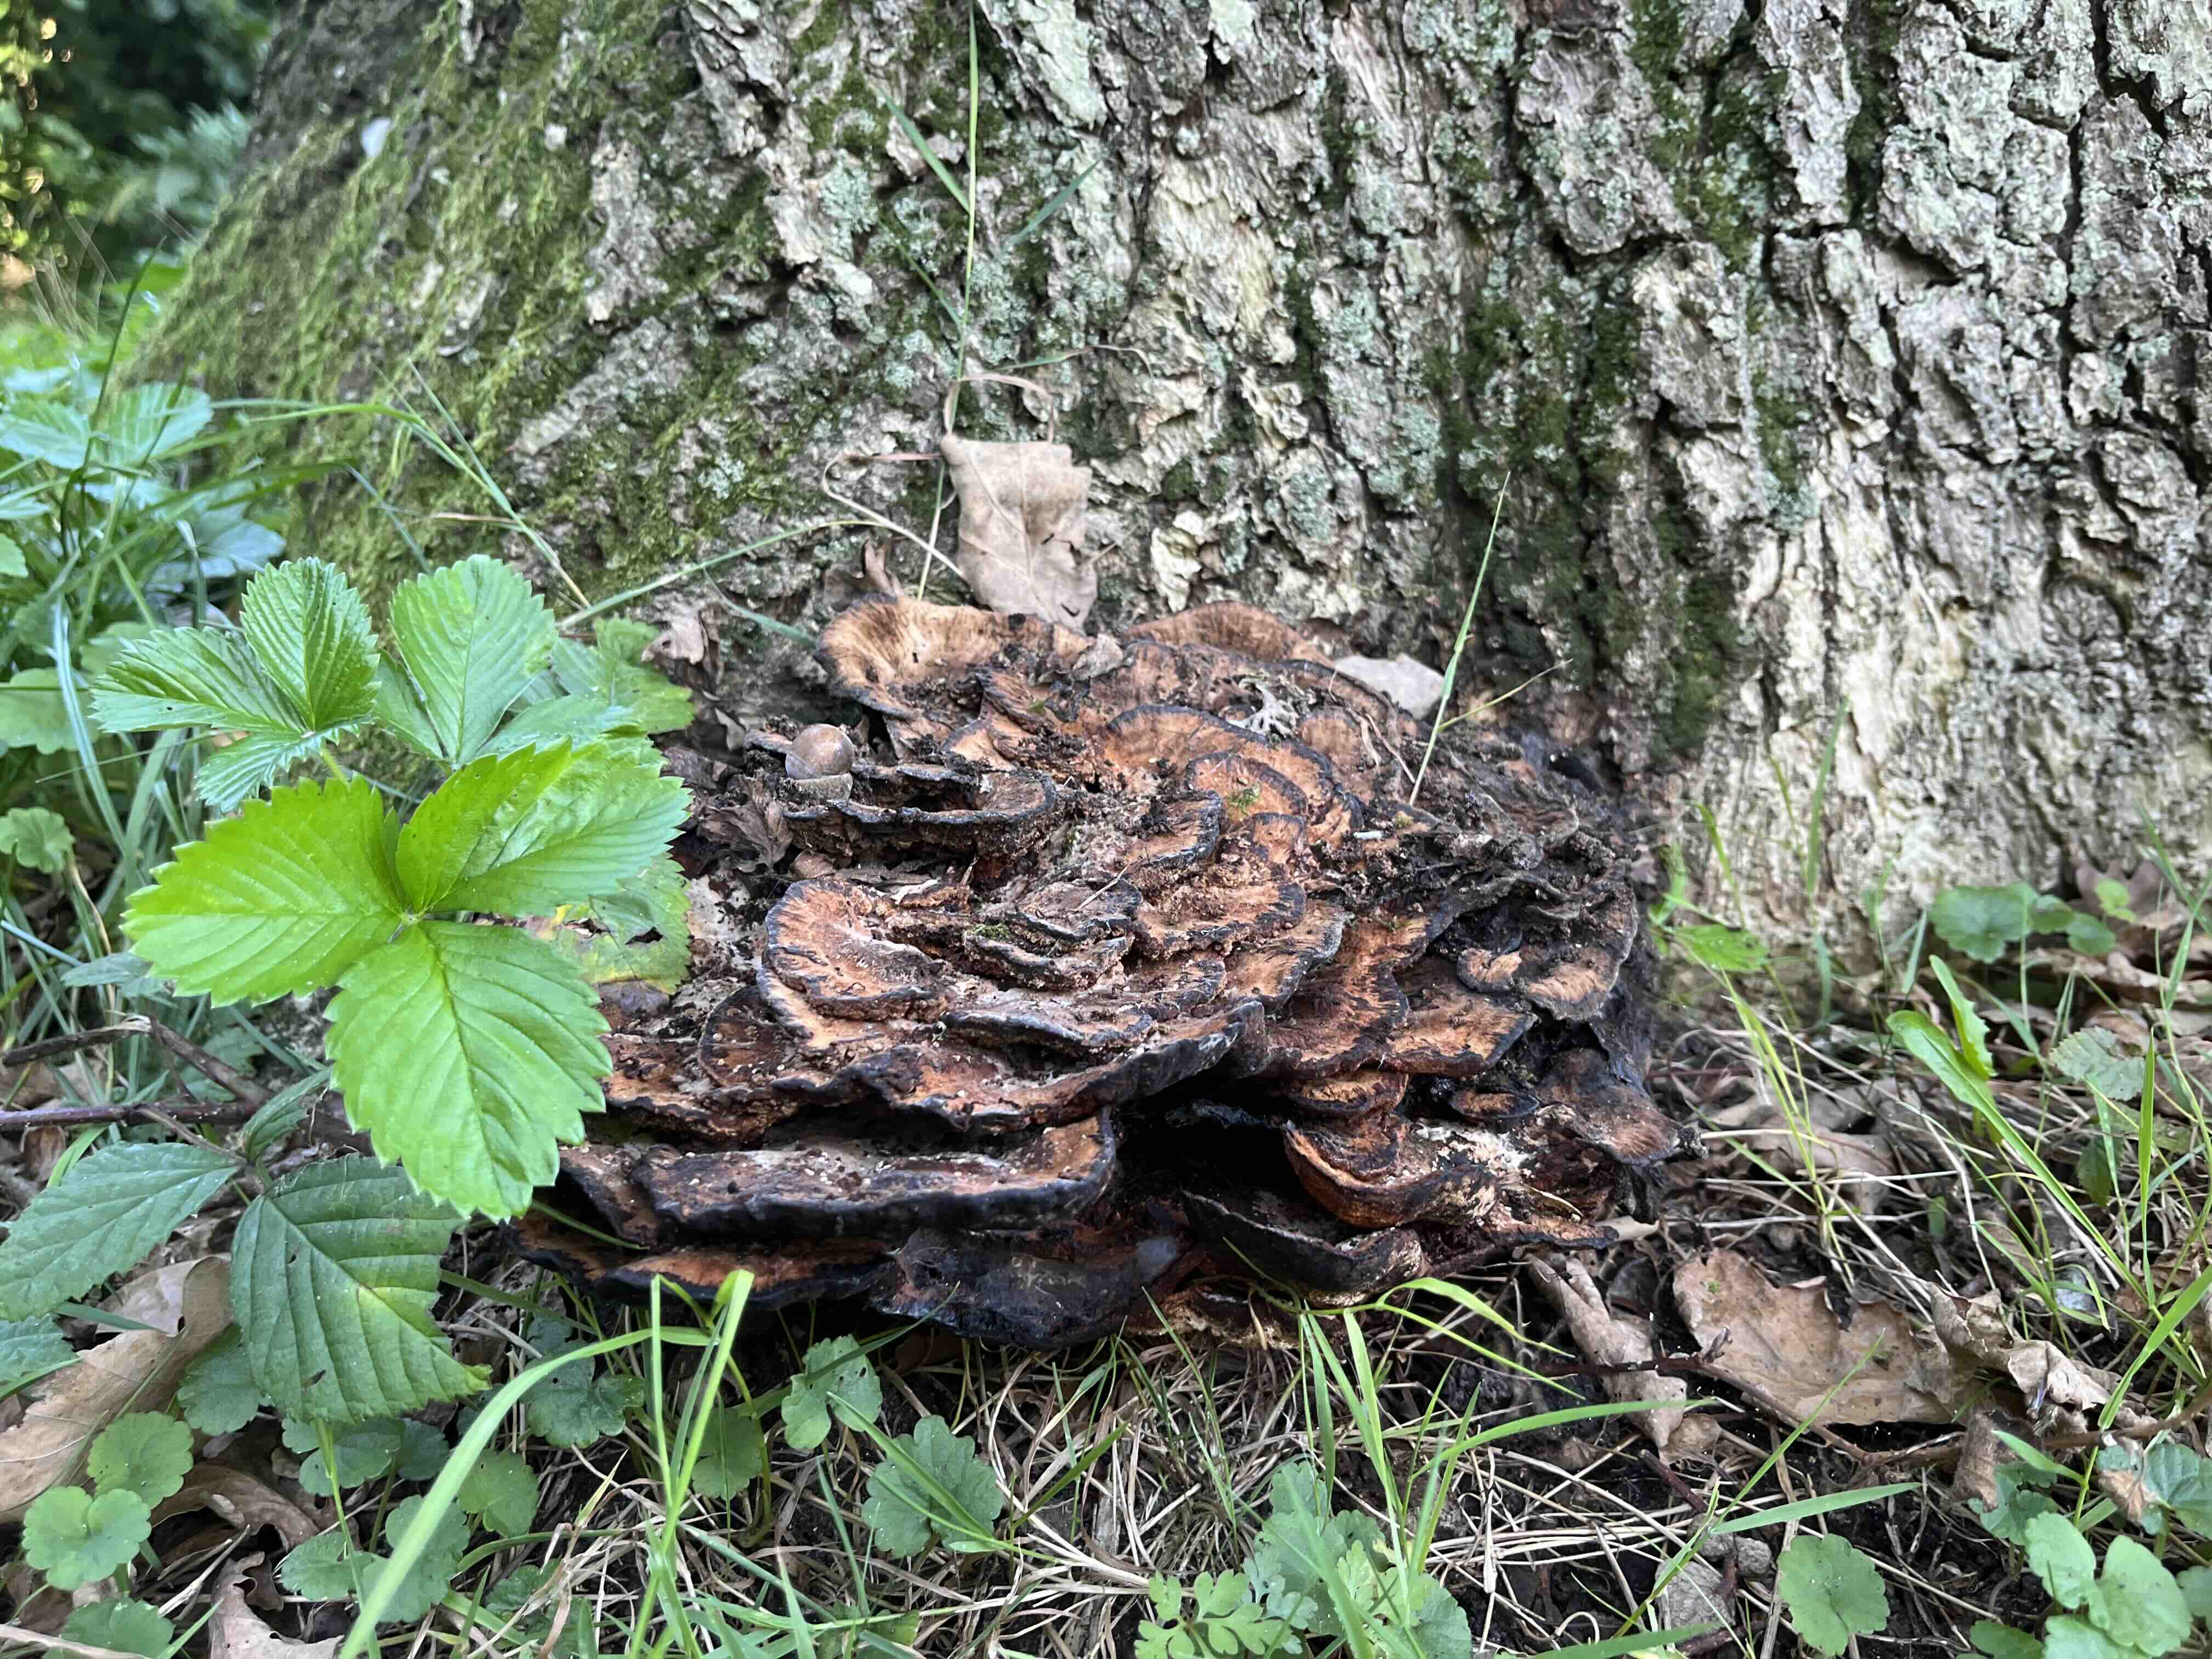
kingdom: Fungi
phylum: Basidiomycota
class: Agaricomycetes
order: Polyporales
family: Grifolaceae
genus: Grifola
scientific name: Grifola frondosa
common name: tueporesvamp
